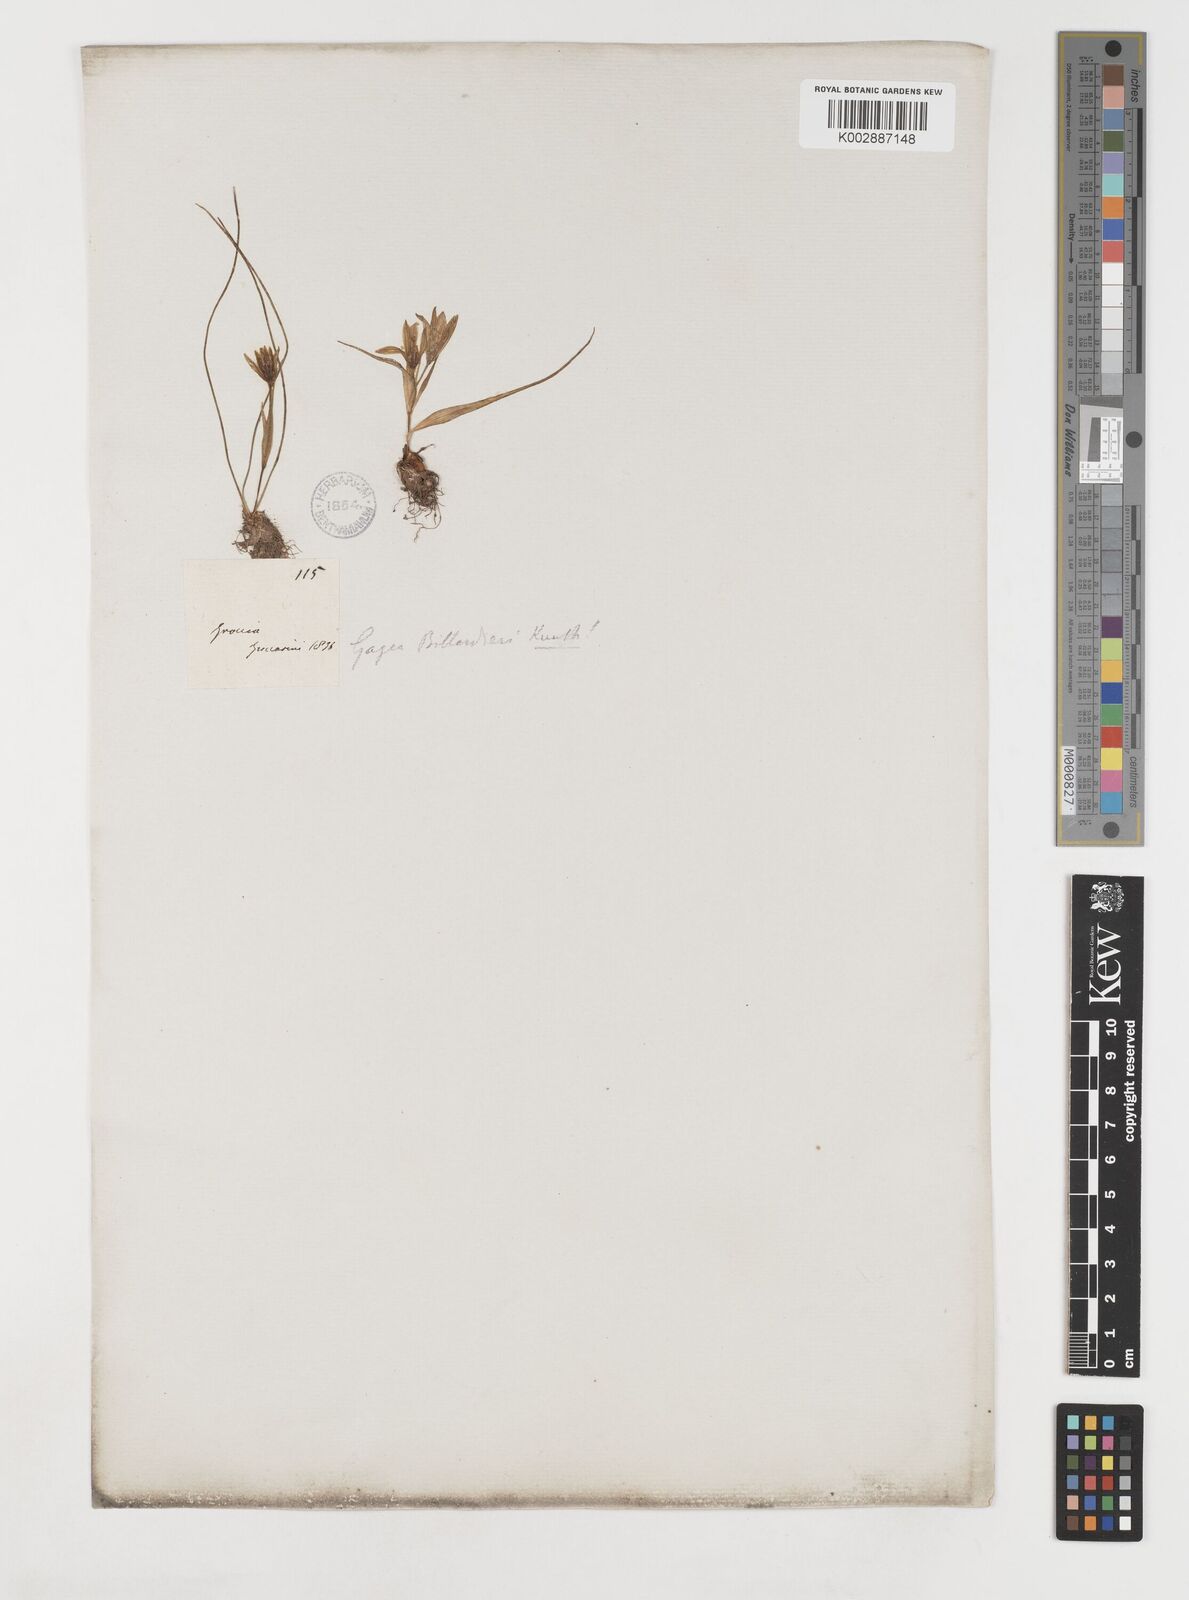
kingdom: Plantae
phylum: Tracheophyta
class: Liliopsida
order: Liliales
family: Liliaceae
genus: Gagea
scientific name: Gagea peduncularis
